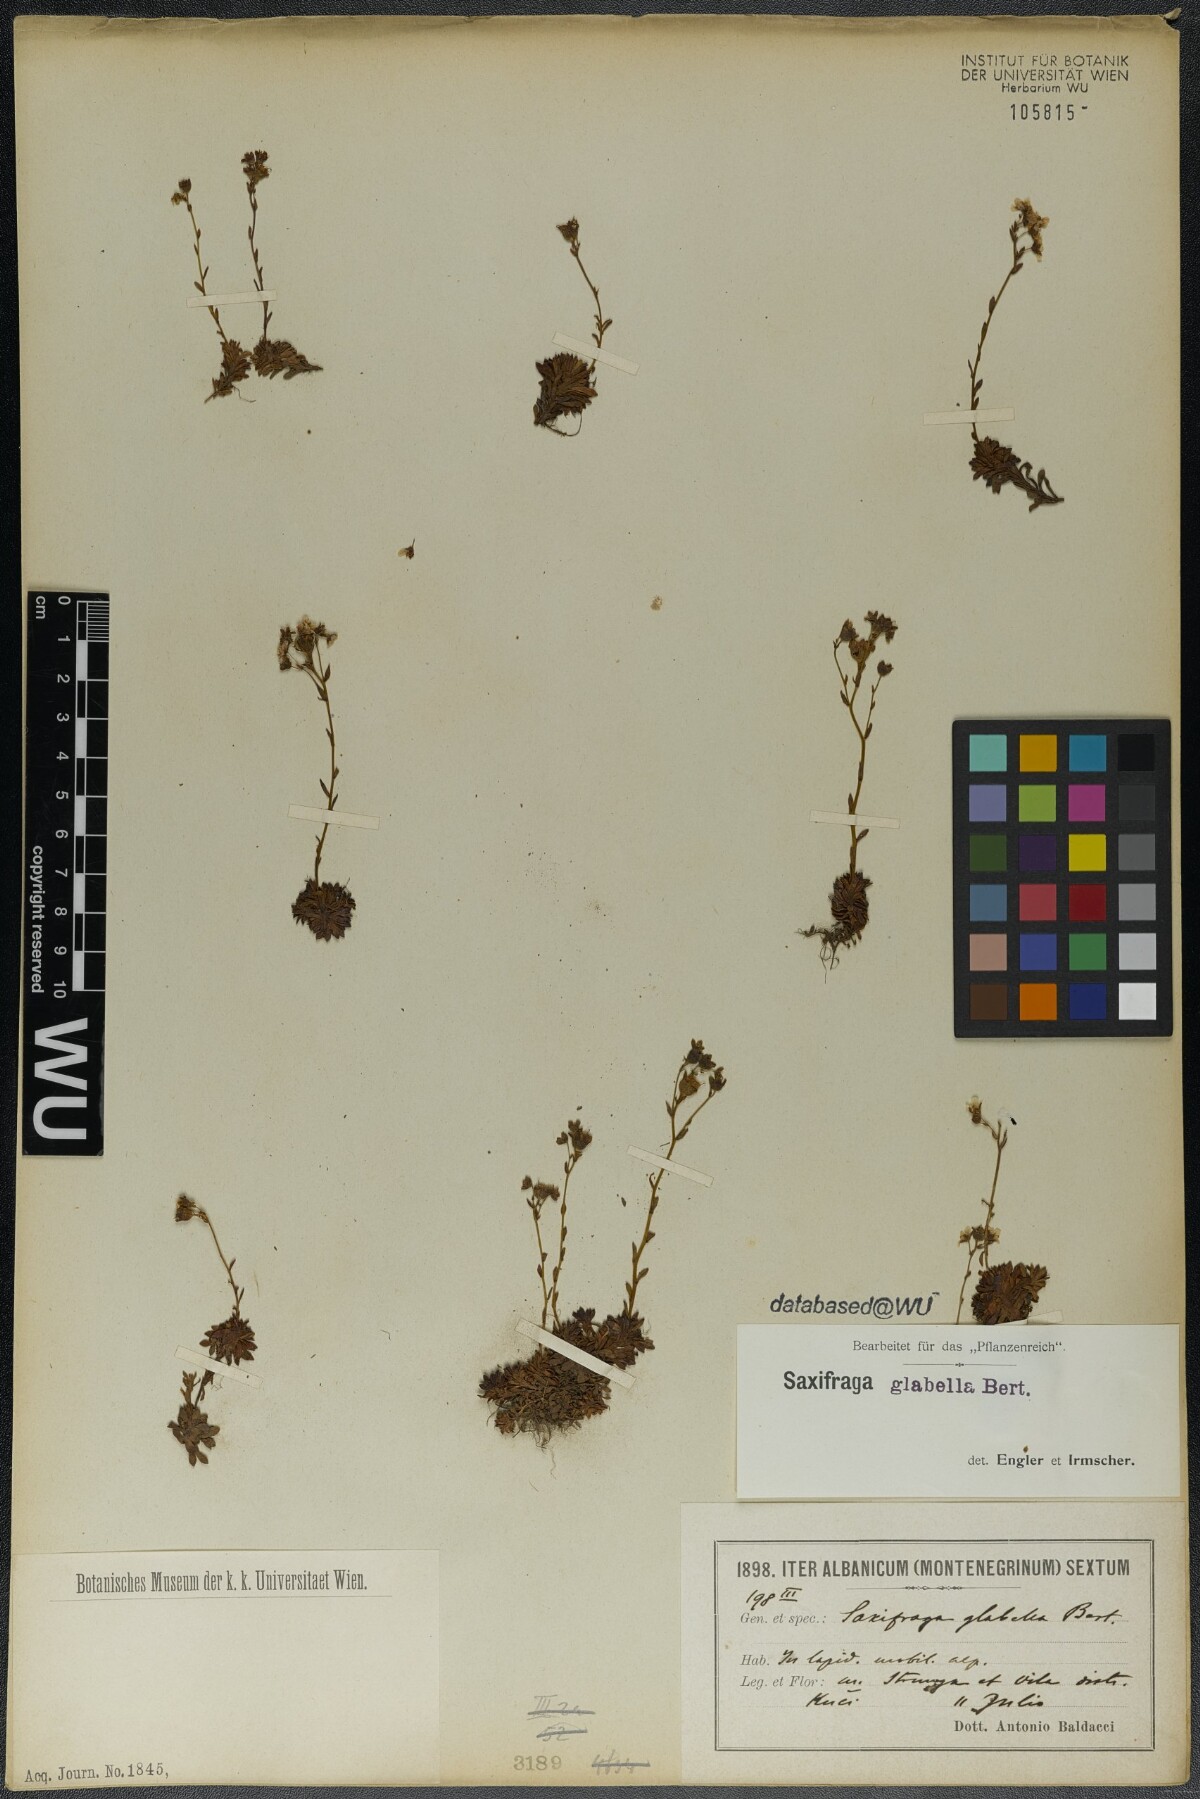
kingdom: Plantae
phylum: Tracheophyta
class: Magnoliopsida
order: Saxifragales
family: Saxifragaceae
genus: Saxifraga
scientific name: Saxifraga glabella
